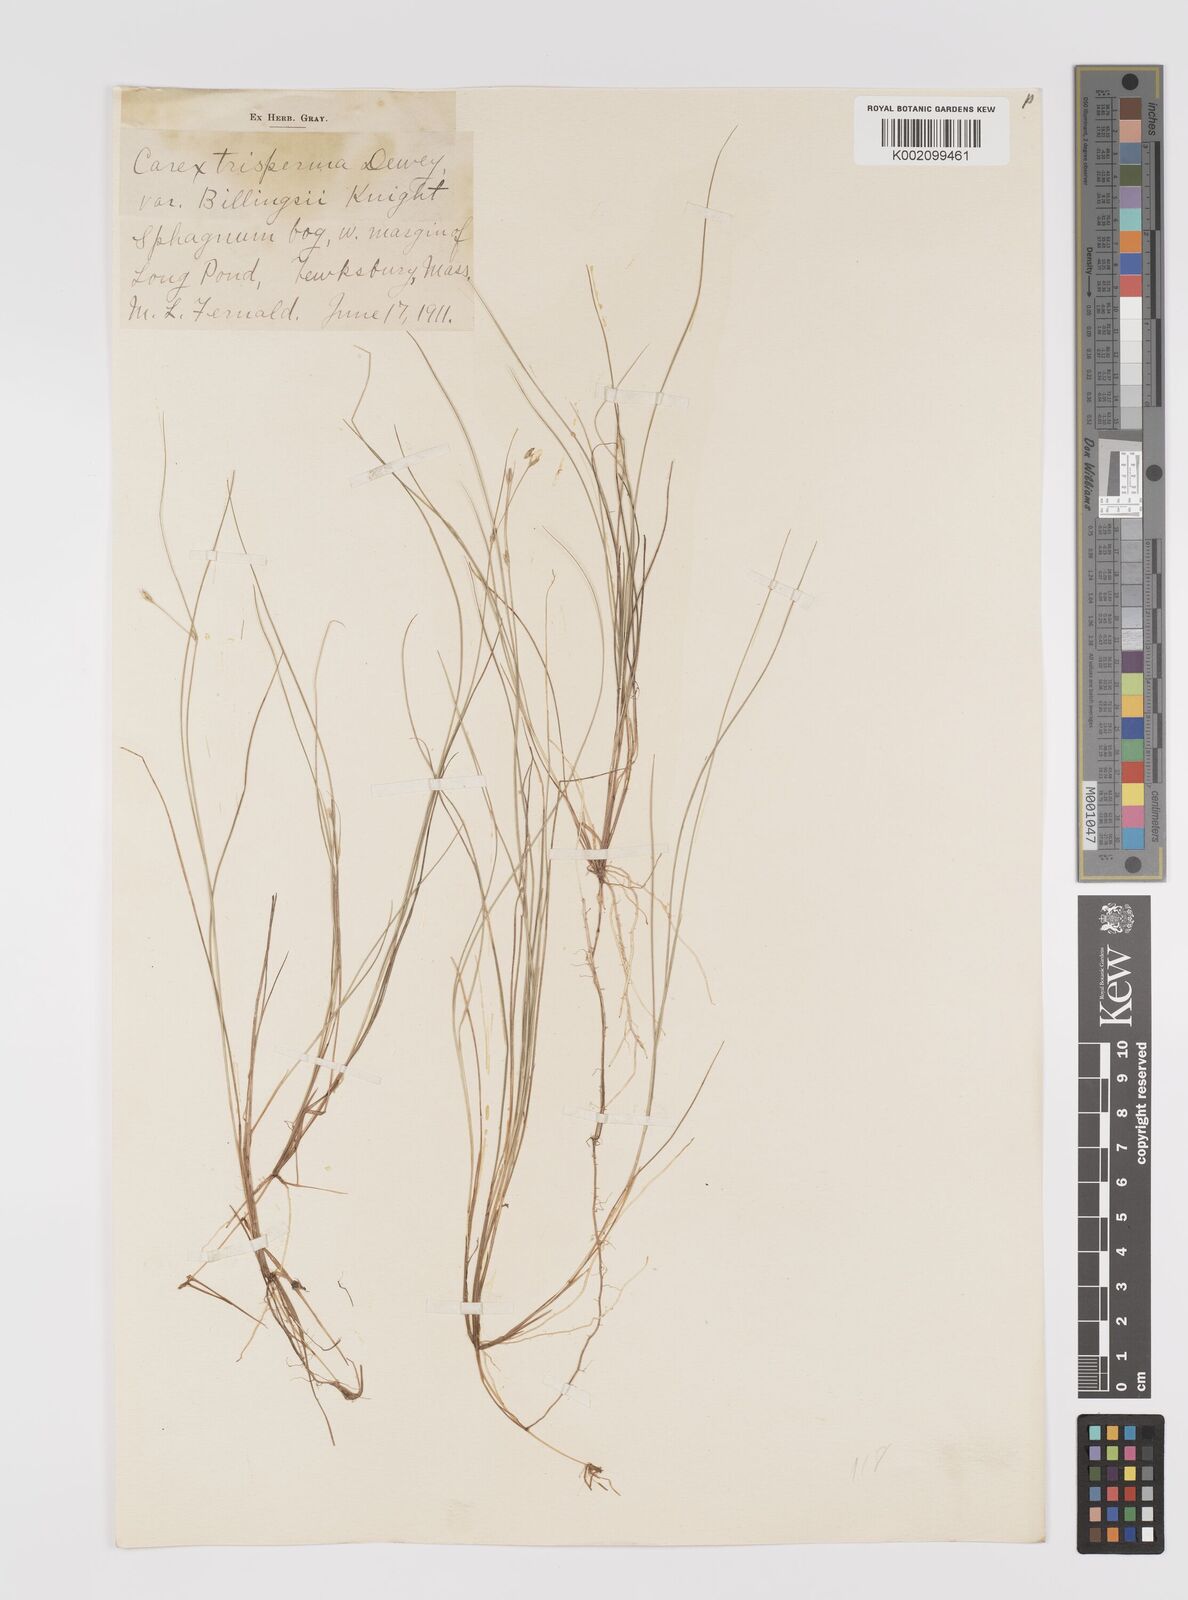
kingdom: Plantae
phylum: Tracheophyta
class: Liliopsida
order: Poales
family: Cyperaceae
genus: Carex
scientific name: Carex trisperma
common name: Three-seeded sedge
